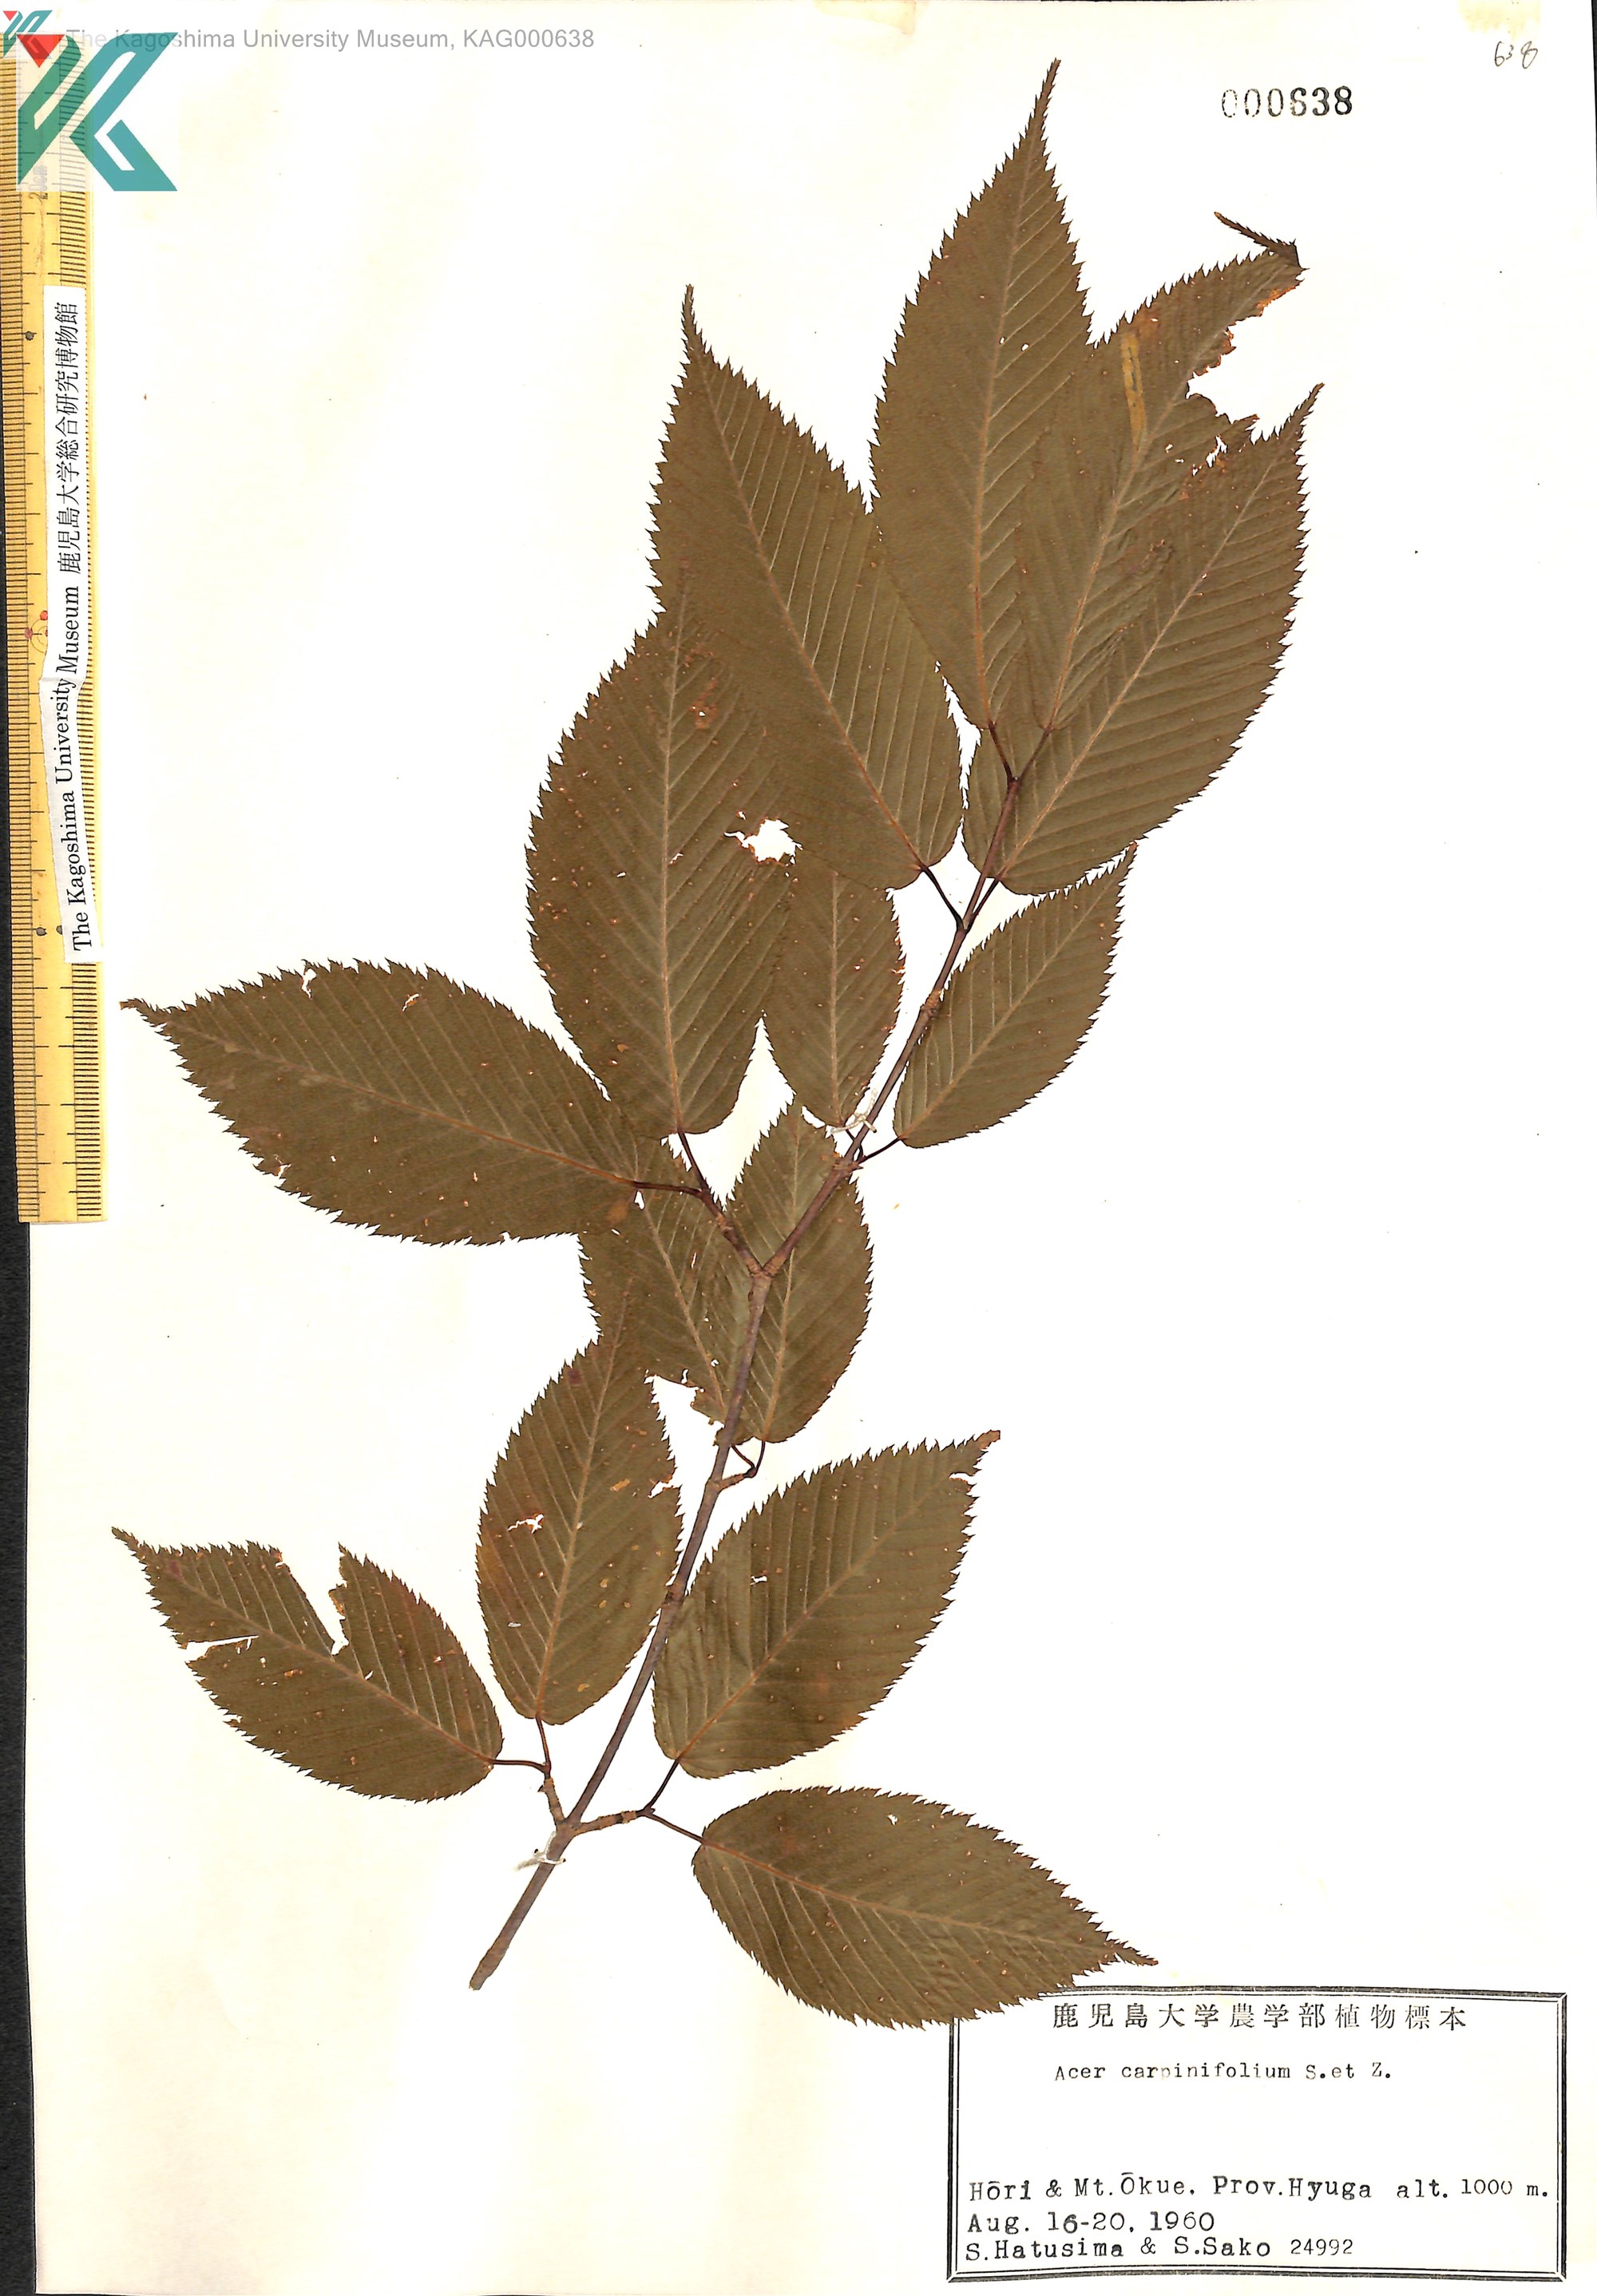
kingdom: Plantae
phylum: Tracheophyta
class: Magnoliopsida
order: Sapindales
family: Sapindaceae
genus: Acer
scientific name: Acer carpinifolium
